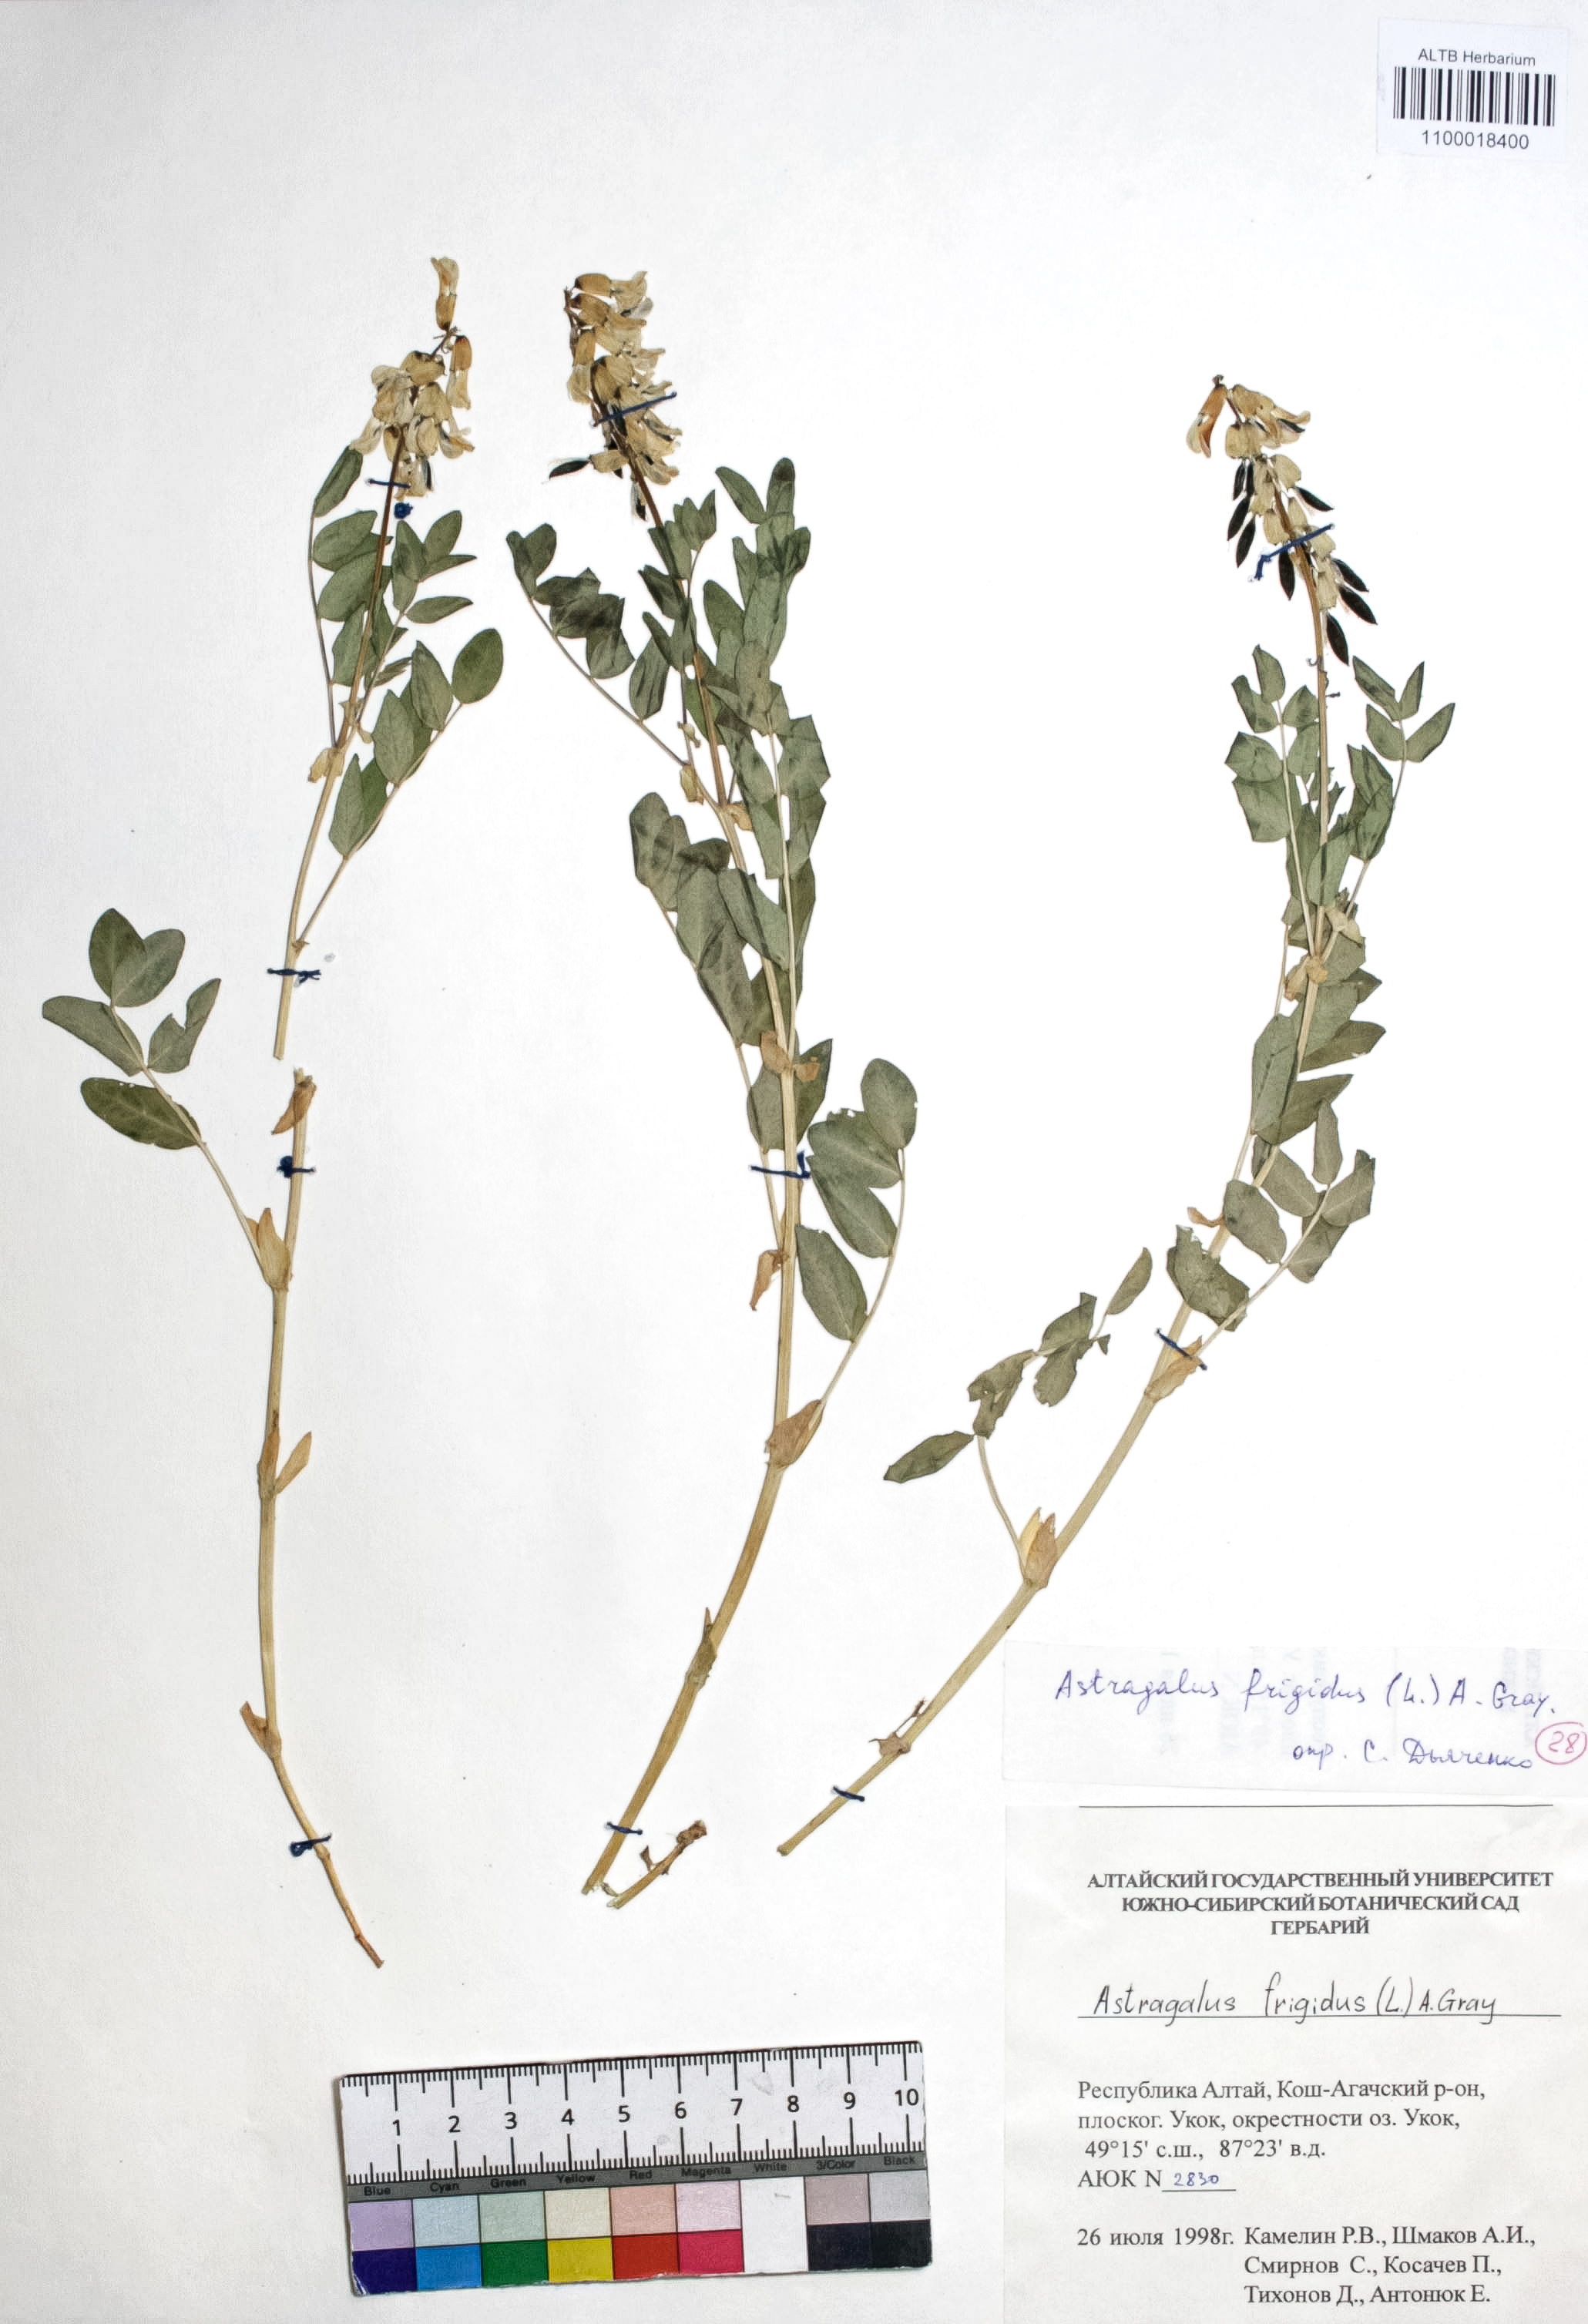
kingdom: Plantae
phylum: Tracheophyta
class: Magnoliopsida
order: Fabales
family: Fabaceae
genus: Astragalus
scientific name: Astragalus frigidus
